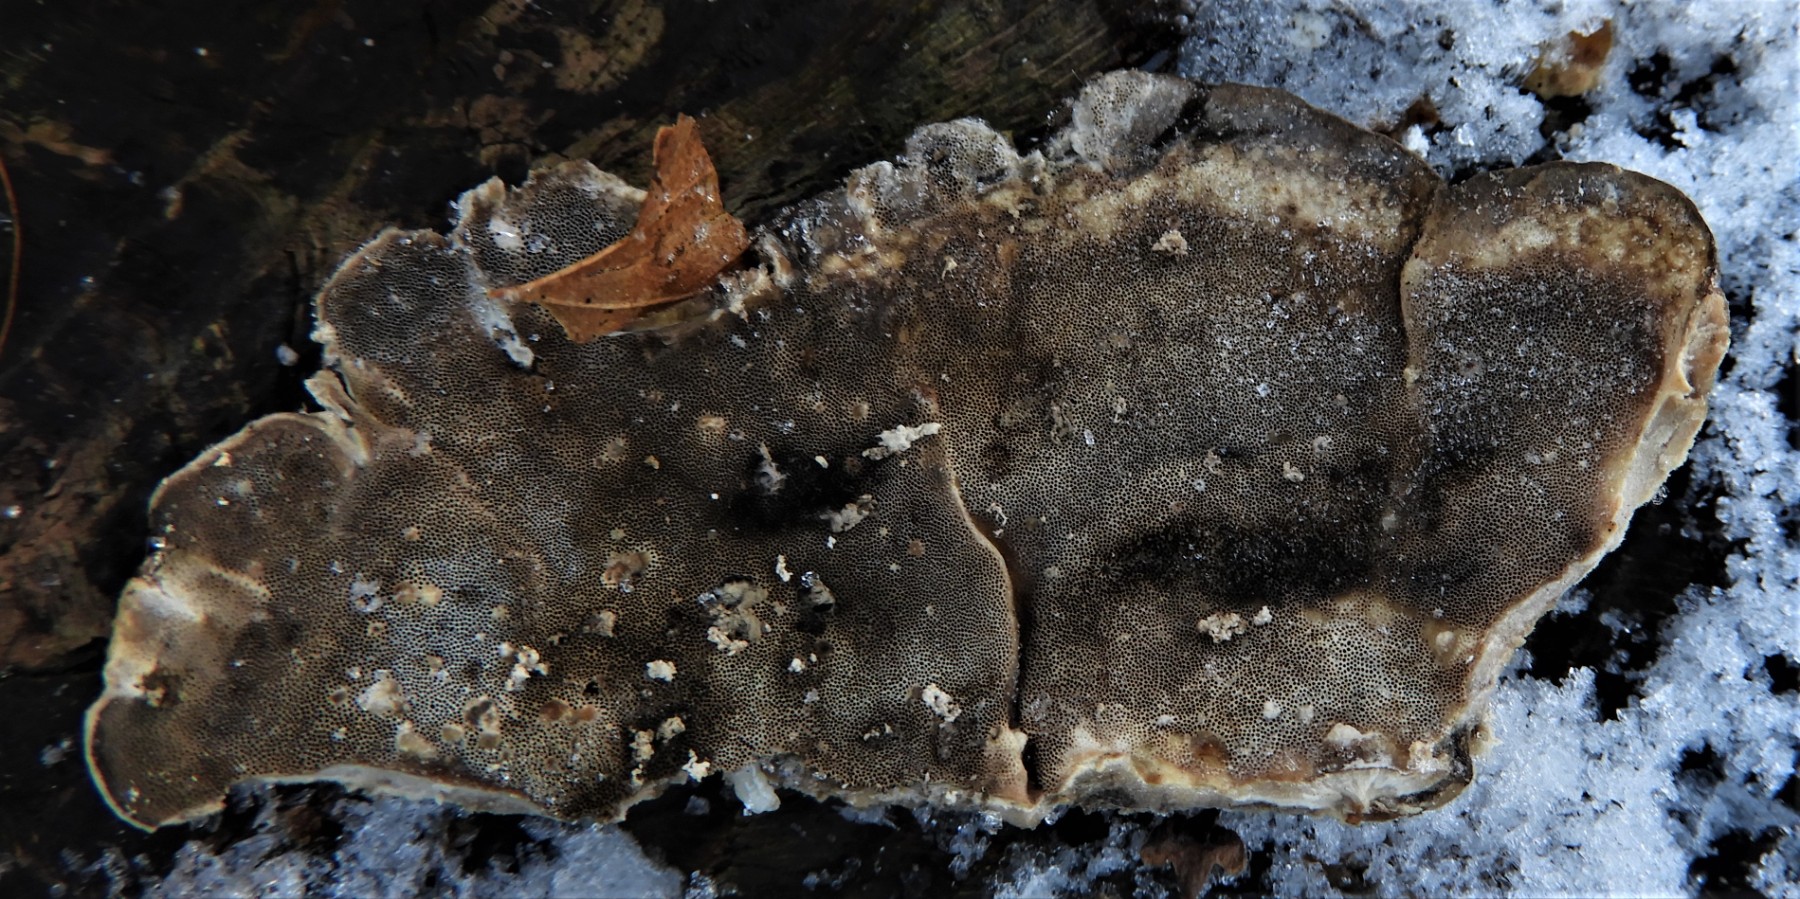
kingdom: Fungi
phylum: Basidiomycota
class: Agaricomycetes
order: Polyporales
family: Phanerochaetaceae
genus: Bjerkandera
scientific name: Bjerkandera adusta
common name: sveden sodporesvamp
